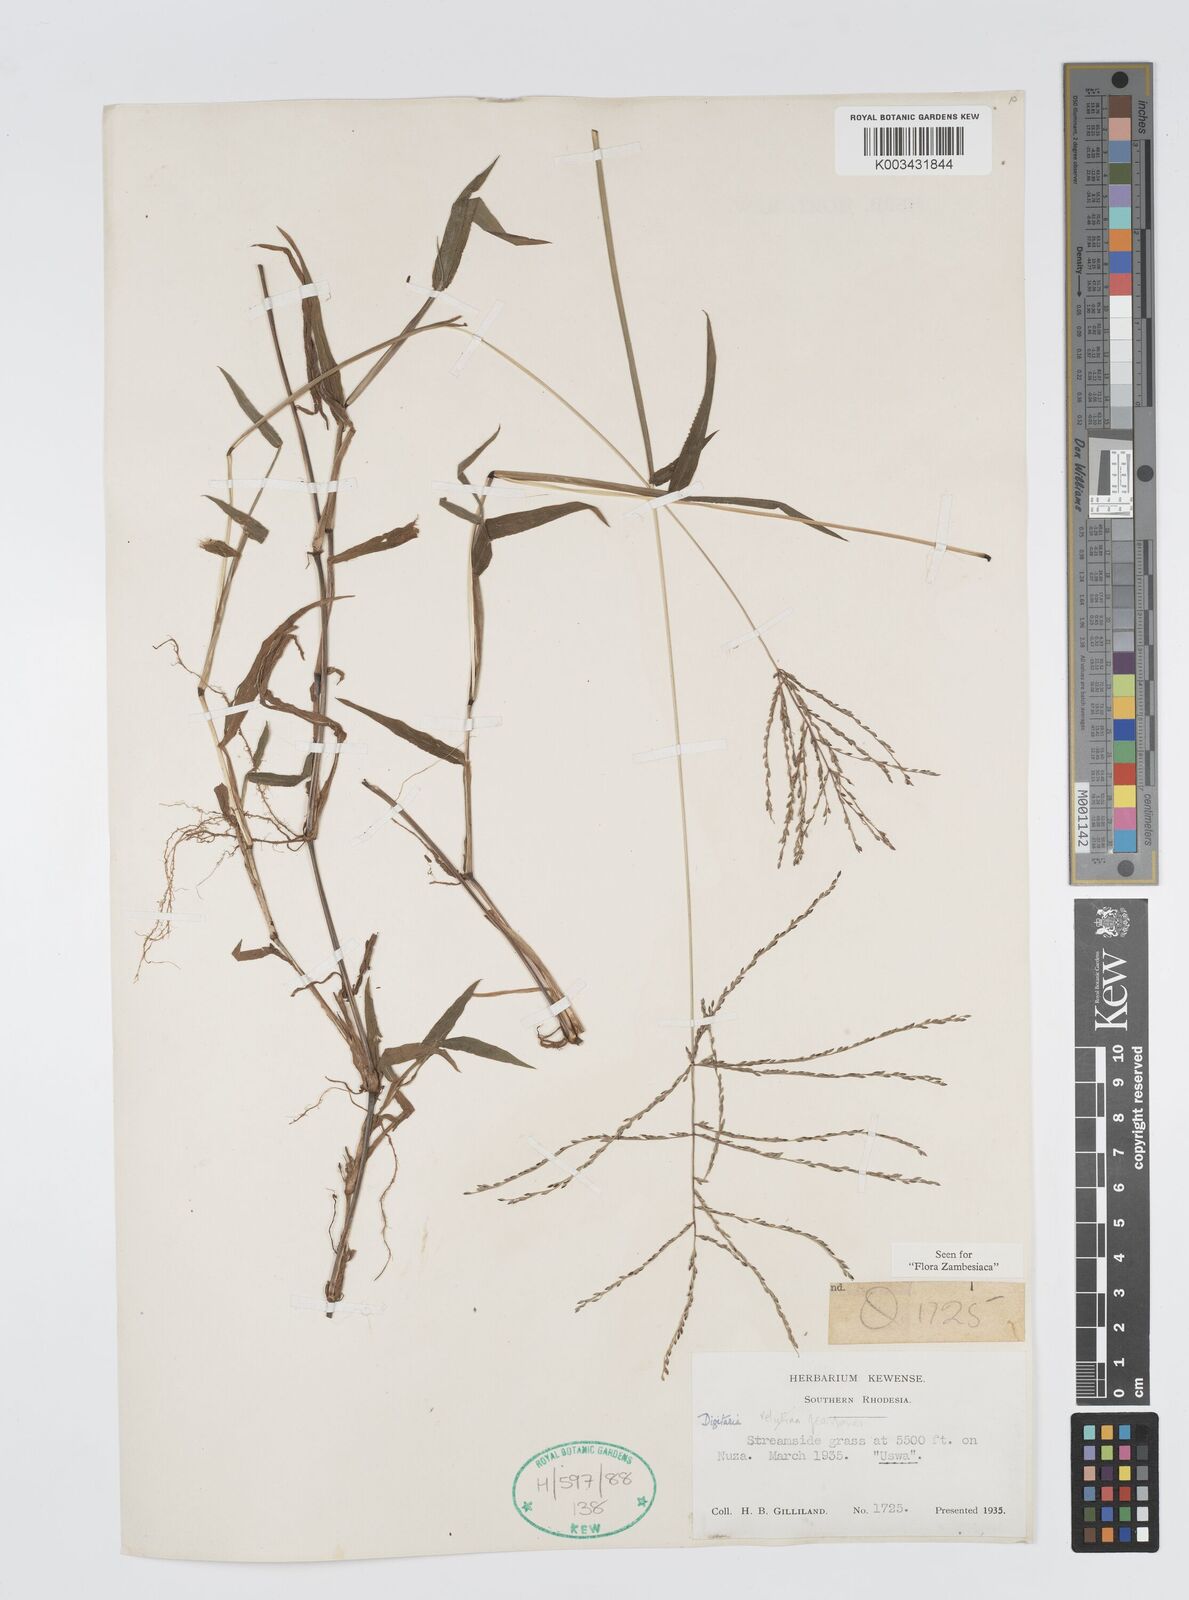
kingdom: Plantae
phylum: Tracheophyta
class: Liliopsida
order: Poales
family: Poaceae
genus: Digitaria
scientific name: Digitaria velutina
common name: Long-plume finger grass
